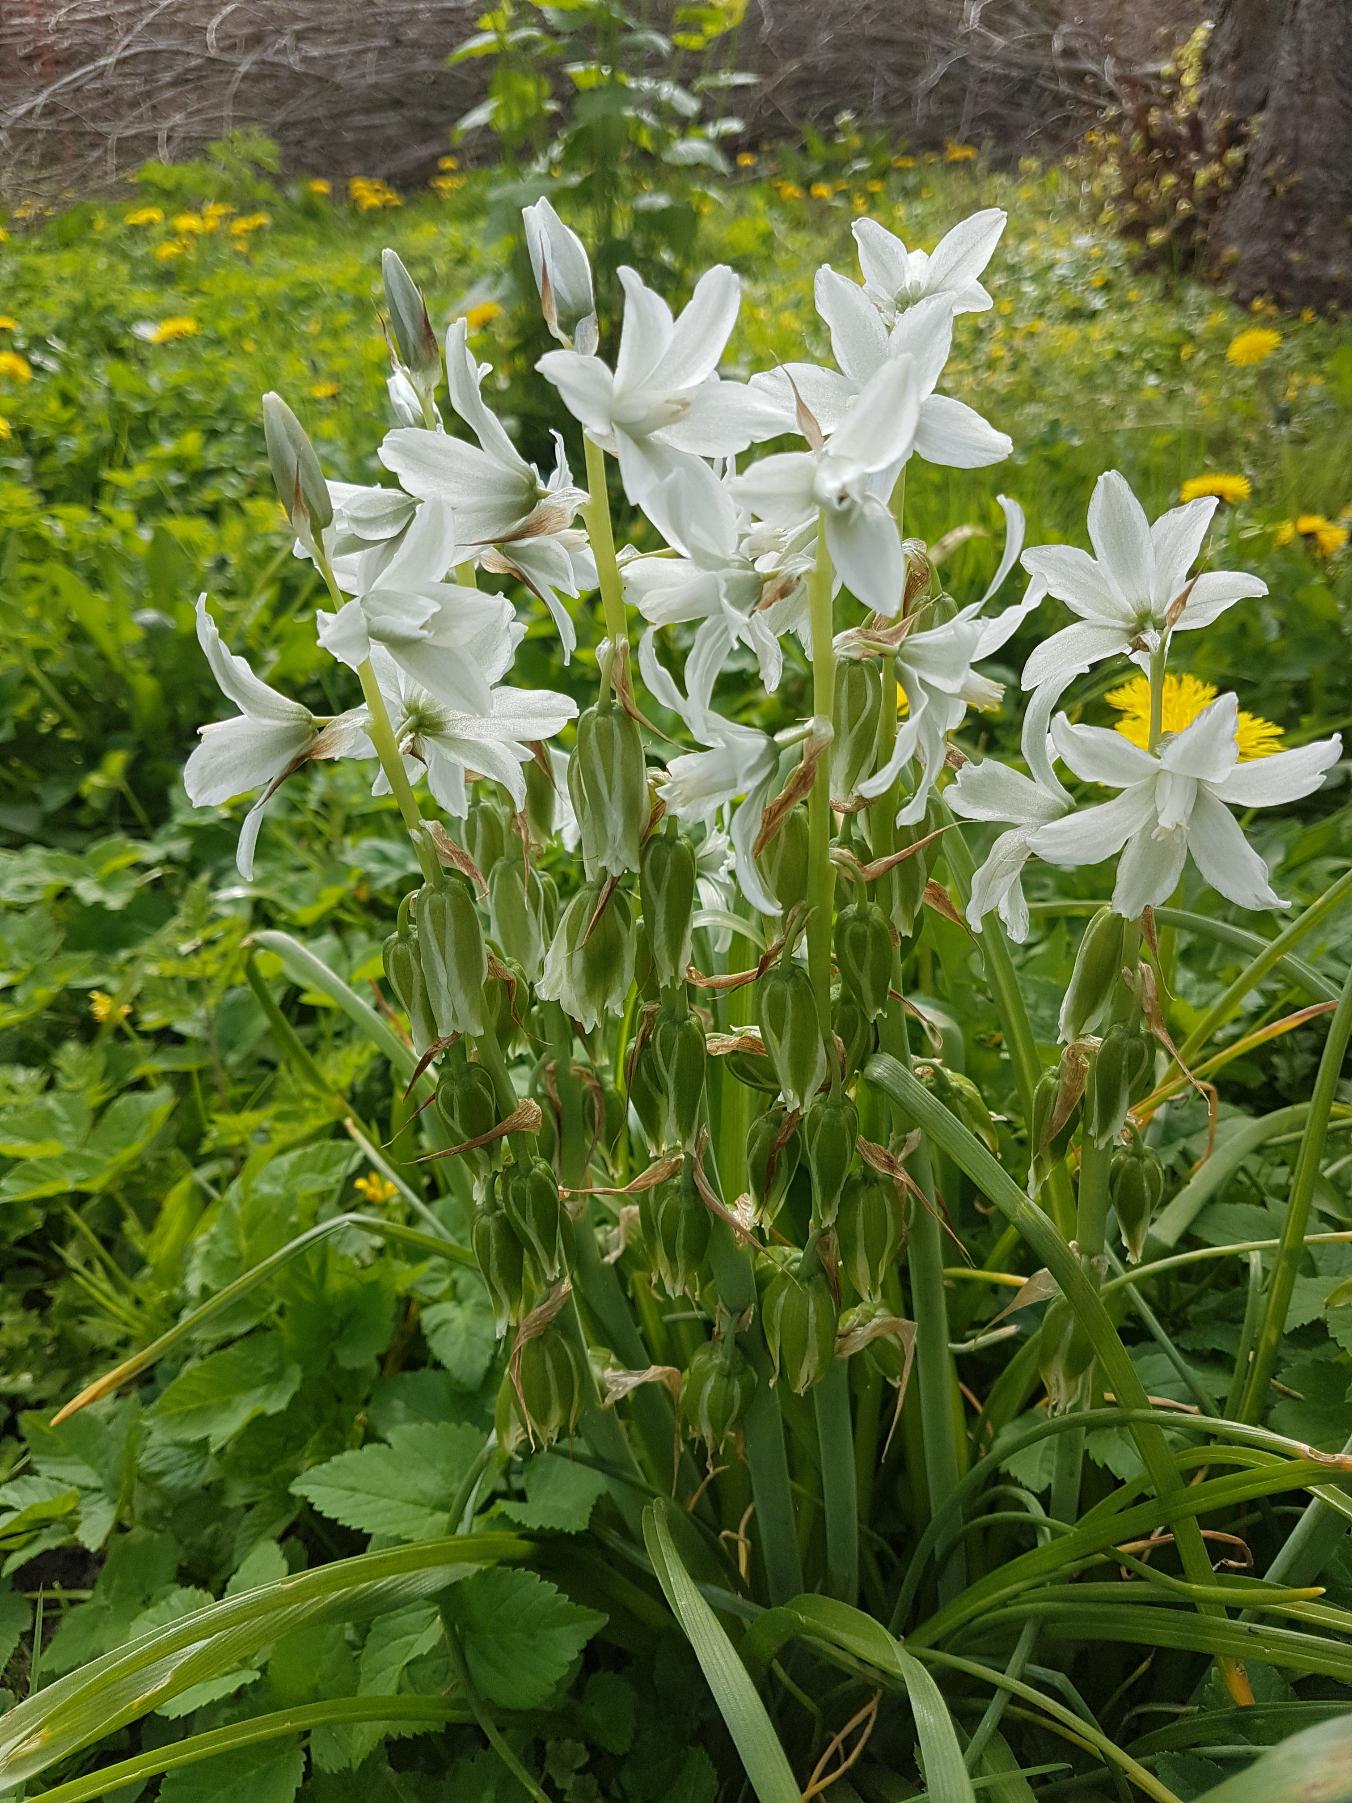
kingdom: Plantae
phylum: Tracheophyta
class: Liliopsida
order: Asparagales
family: Asparagaceae
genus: Ornithogalum
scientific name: Ornithogalum nutans
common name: Nikkende fuglemælk
